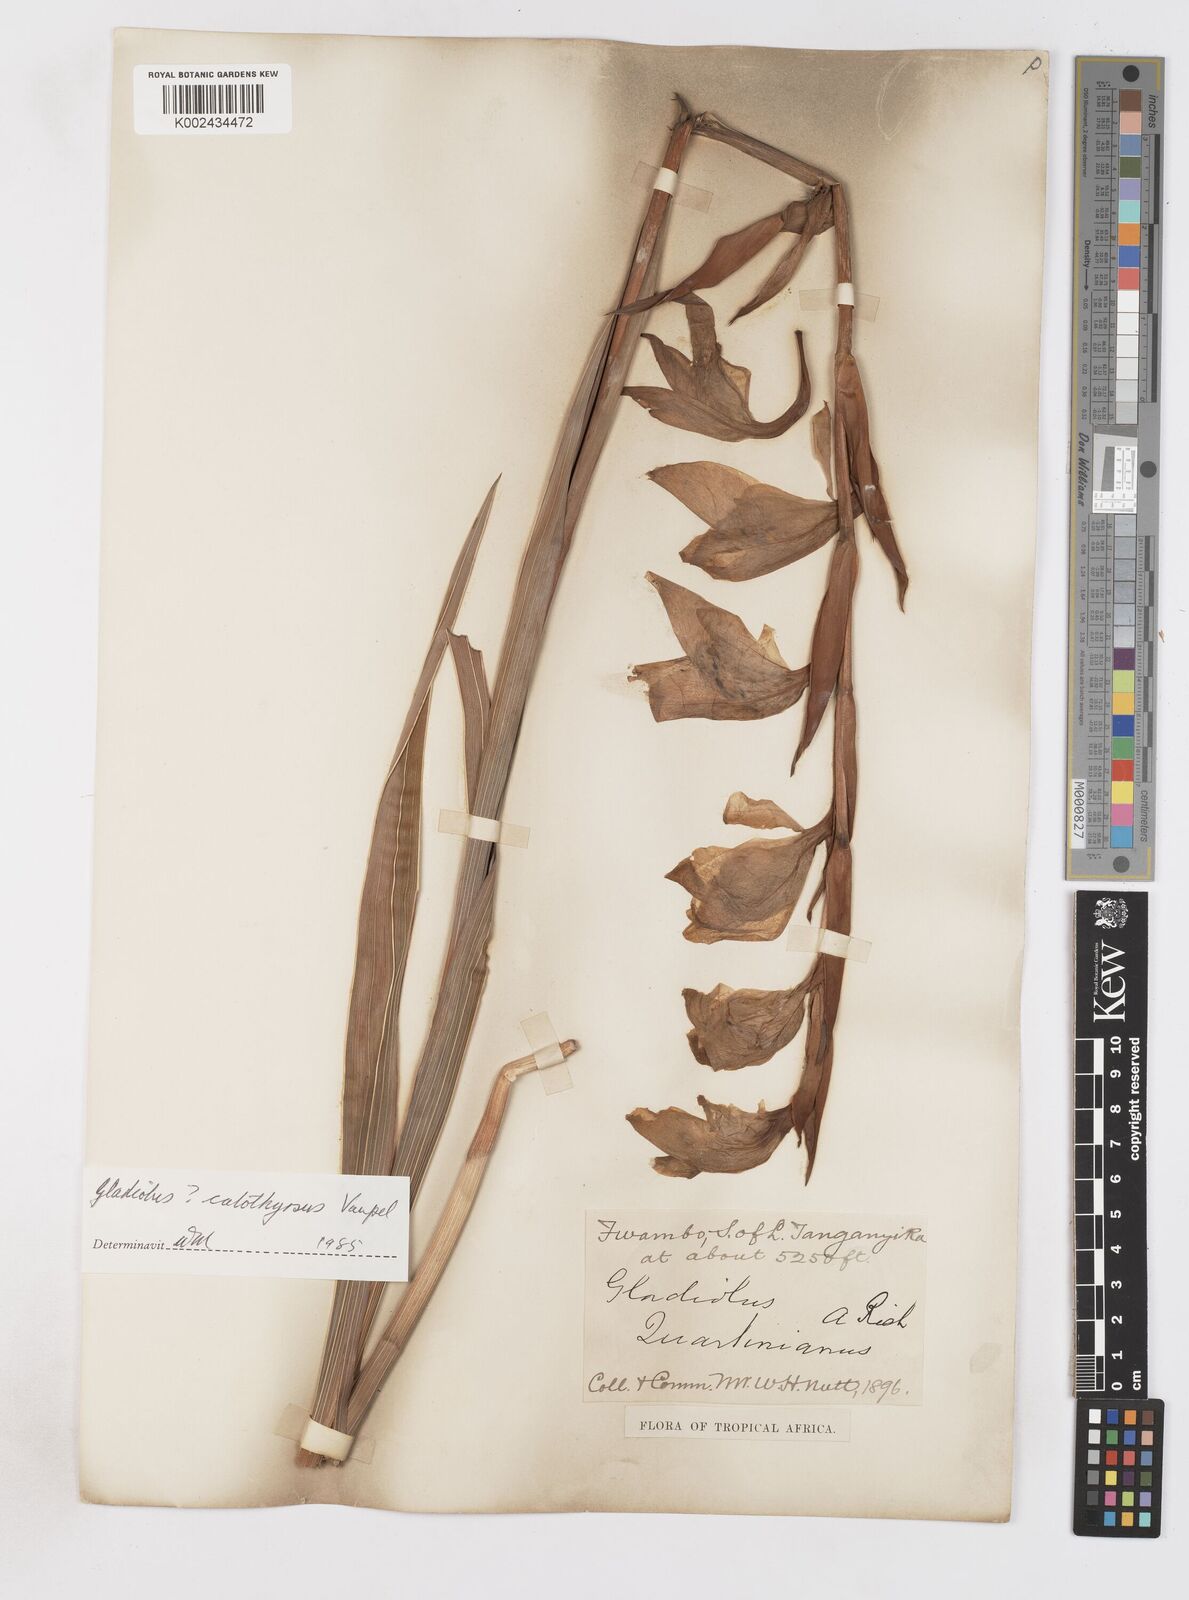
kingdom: Plantae
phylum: Tracheophyta
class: Liliopsida
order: Asparagales
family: Iridaceae
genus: Gladiolus
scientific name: Gladiolus dalenii
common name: Cornflag
